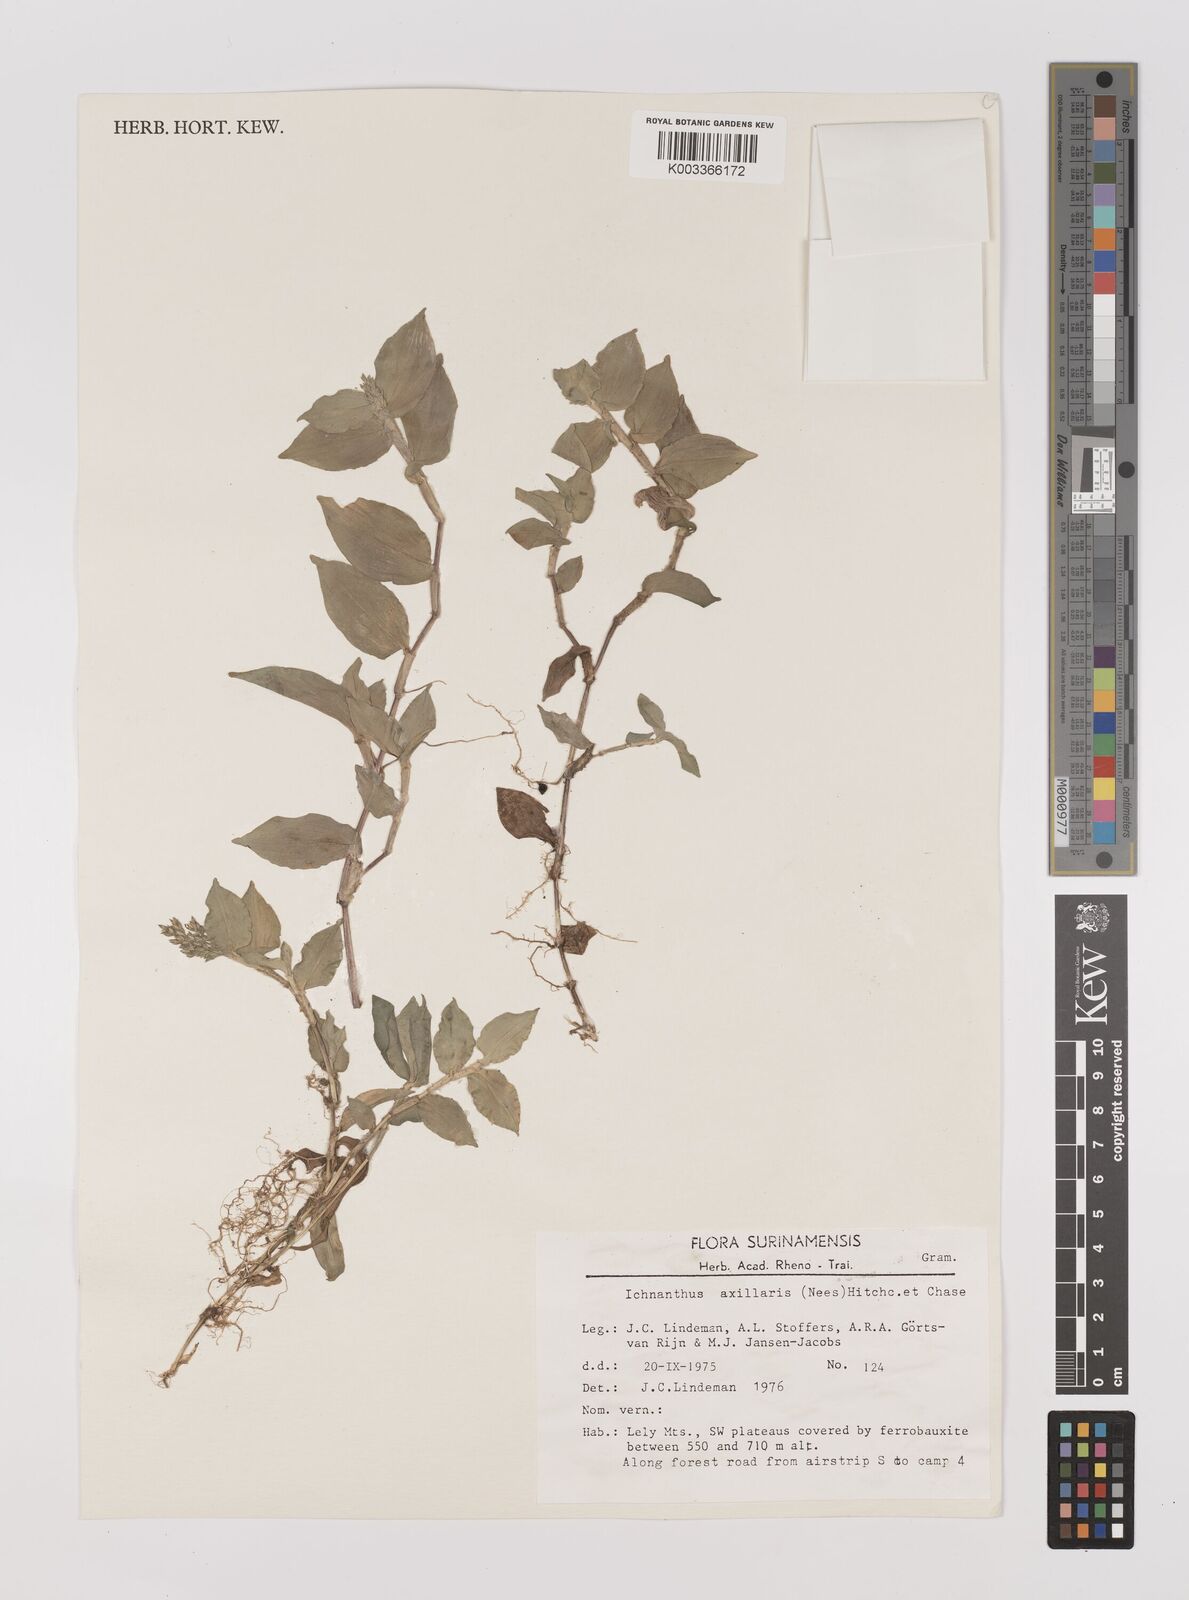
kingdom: Plantae
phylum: Tracheophyta
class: Liliopsida
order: Poales
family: Poaceae
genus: Ichnanthus
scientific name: Ichnanthus pallens
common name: Water grass
